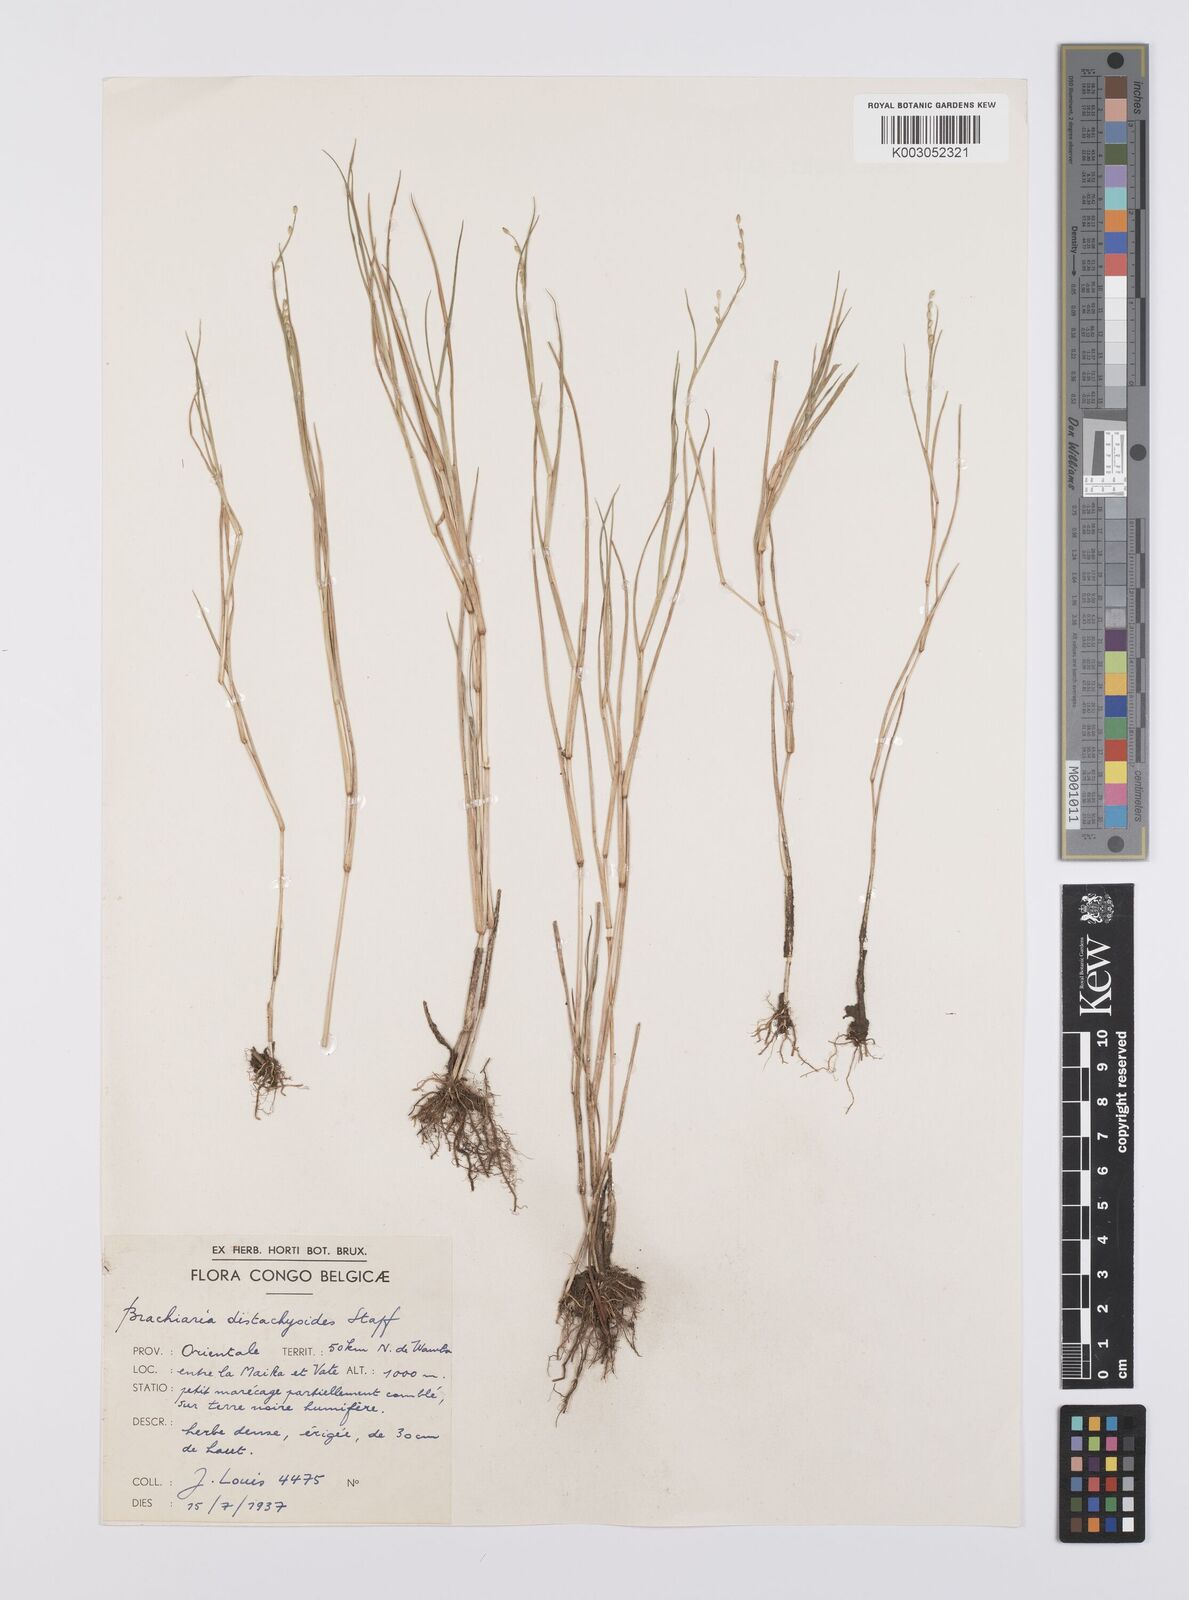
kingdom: Plantae
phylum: Tracheophyta
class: Liliopsida
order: Poales
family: Poaceae
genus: Urochloa
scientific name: Urochloa distachyoides
